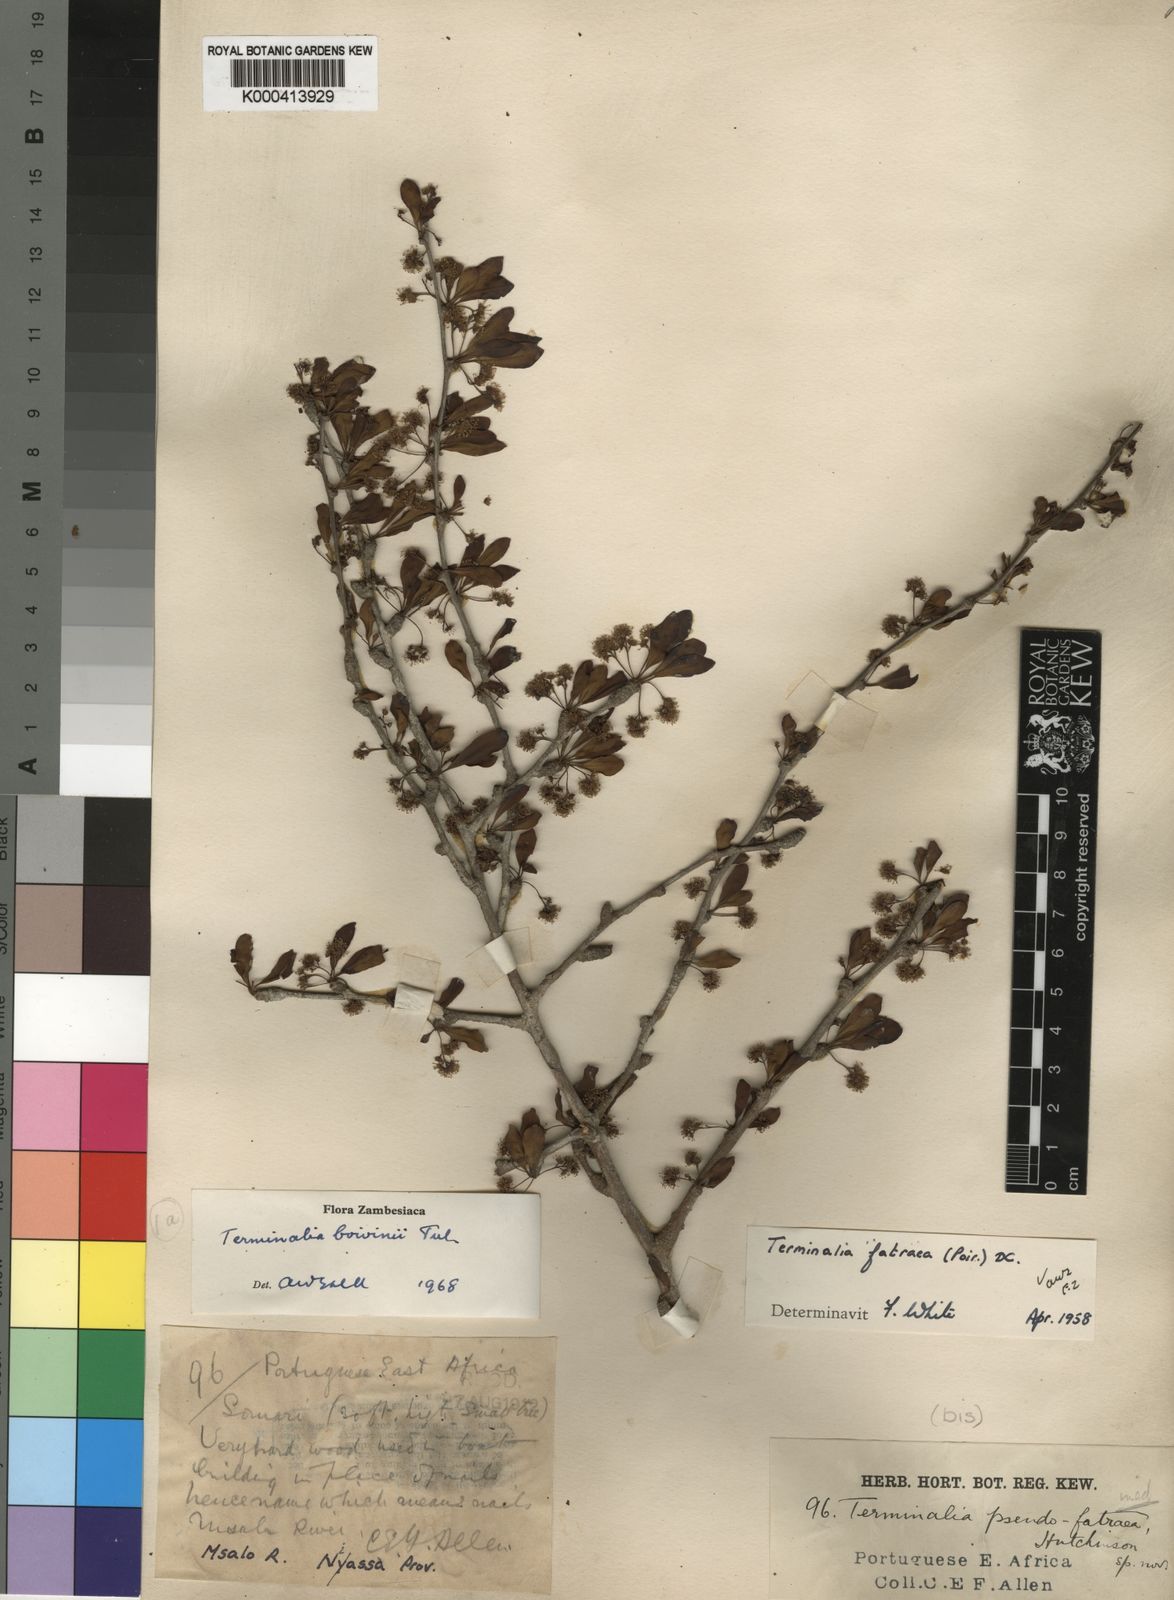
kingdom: Plantae
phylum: Tracheophyta
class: Magnoliopsida
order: Myrtales
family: Combretaceae
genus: Terminalia
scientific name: Terminalia fatraea
